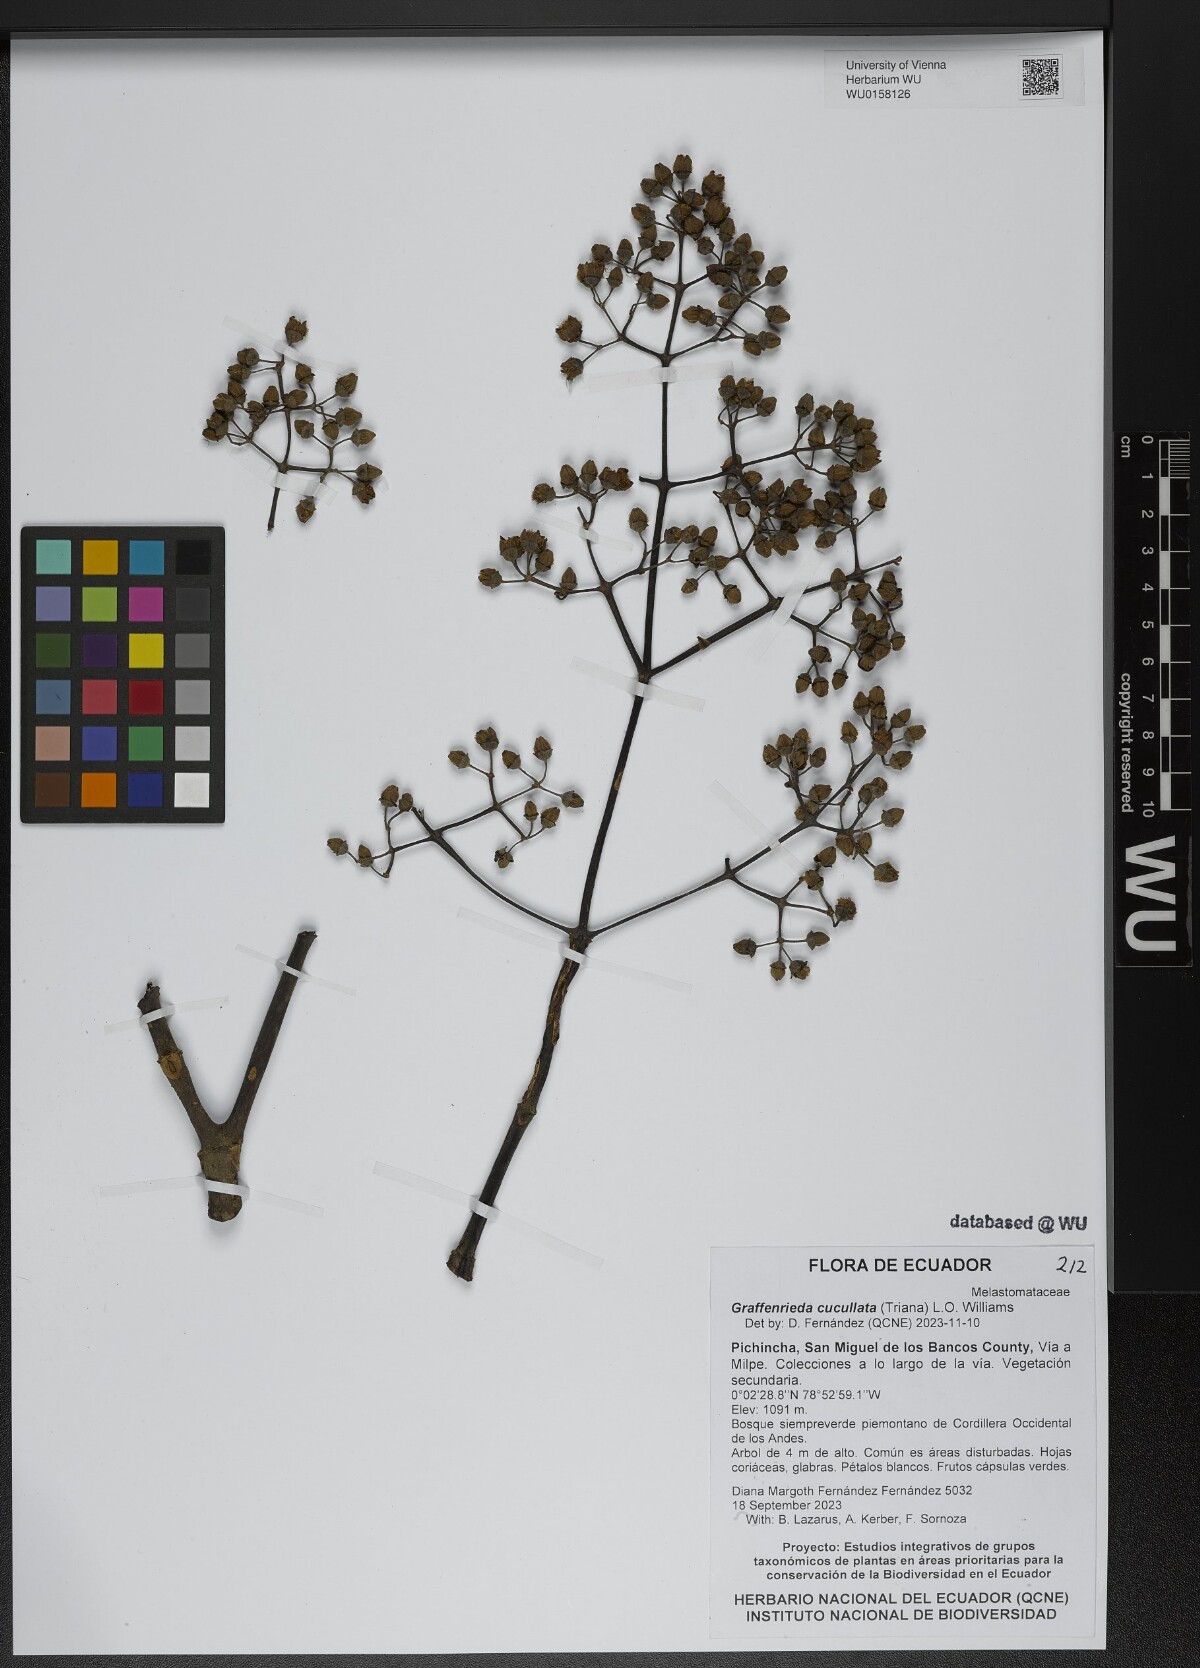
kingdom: Plantae
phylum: Tracheophyta
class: Magnoliopsida
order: Myrtales
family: Melastomataceae
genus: Graffenrieda
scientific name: Graffenrieda cucullata
